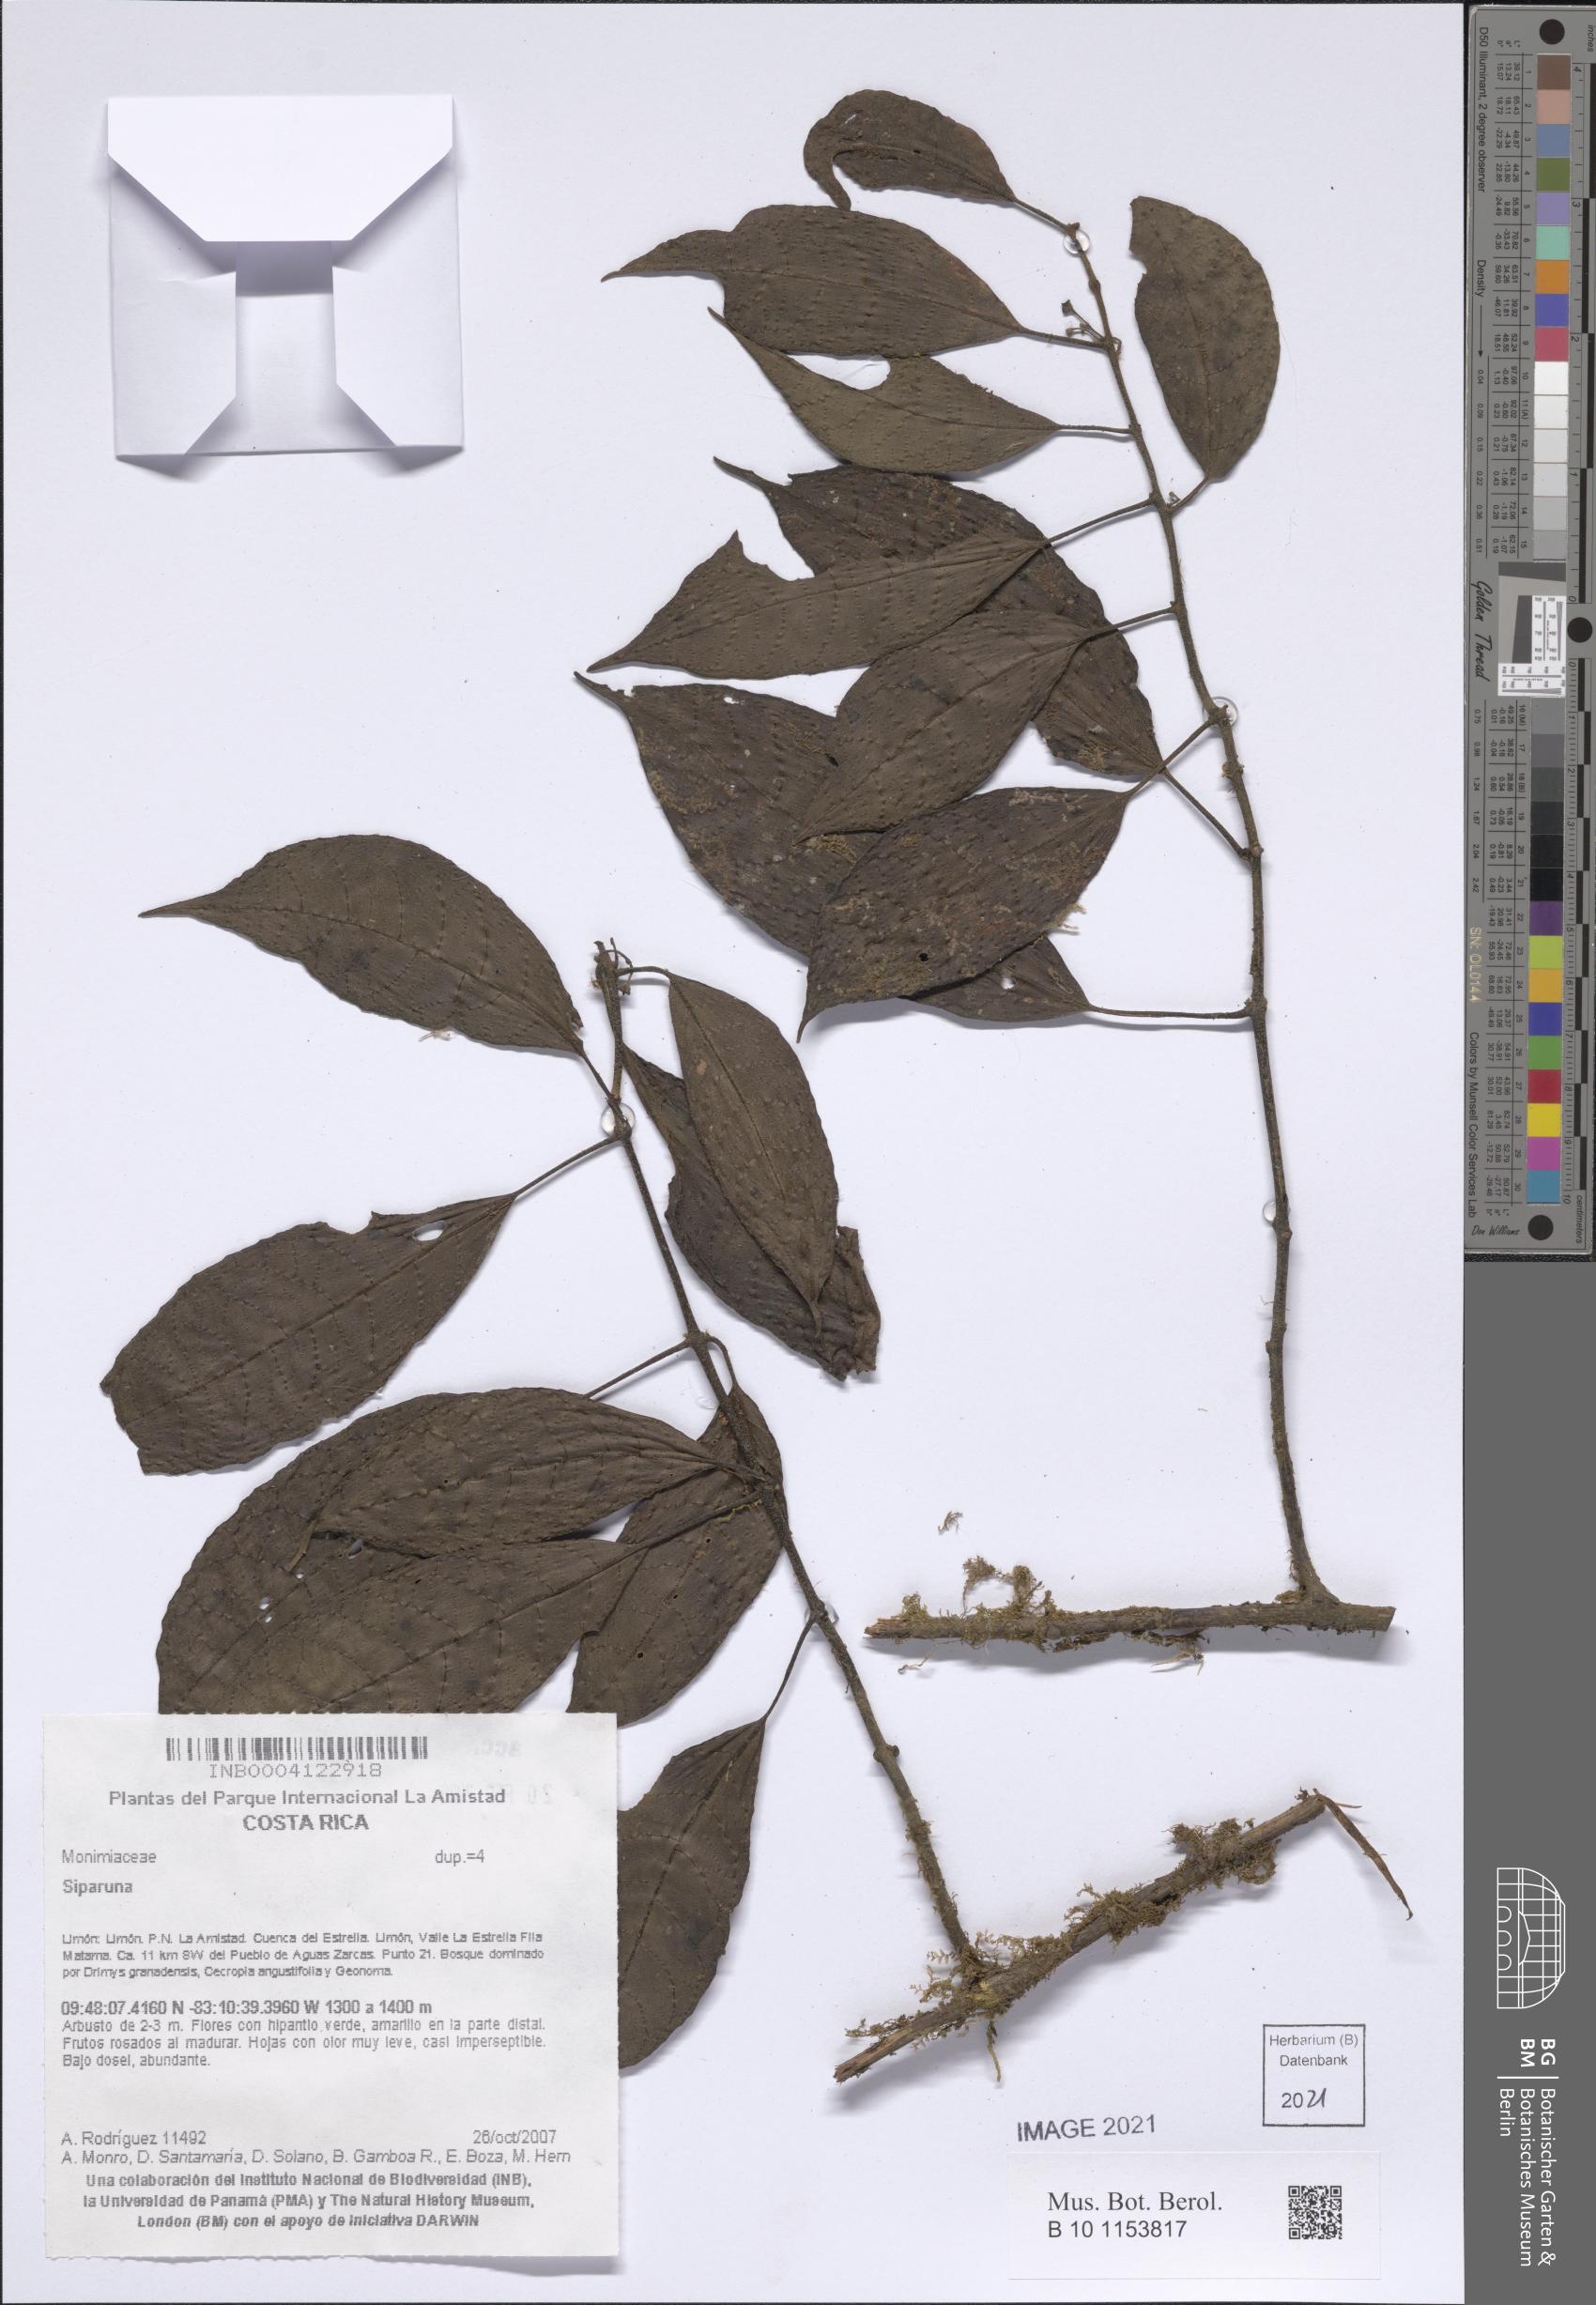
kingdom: Plantae
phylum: Tracheophyta
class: Magnoliopsida
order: Laurales
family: Siparunaceae
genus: Siparuna
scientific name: Siparuna
